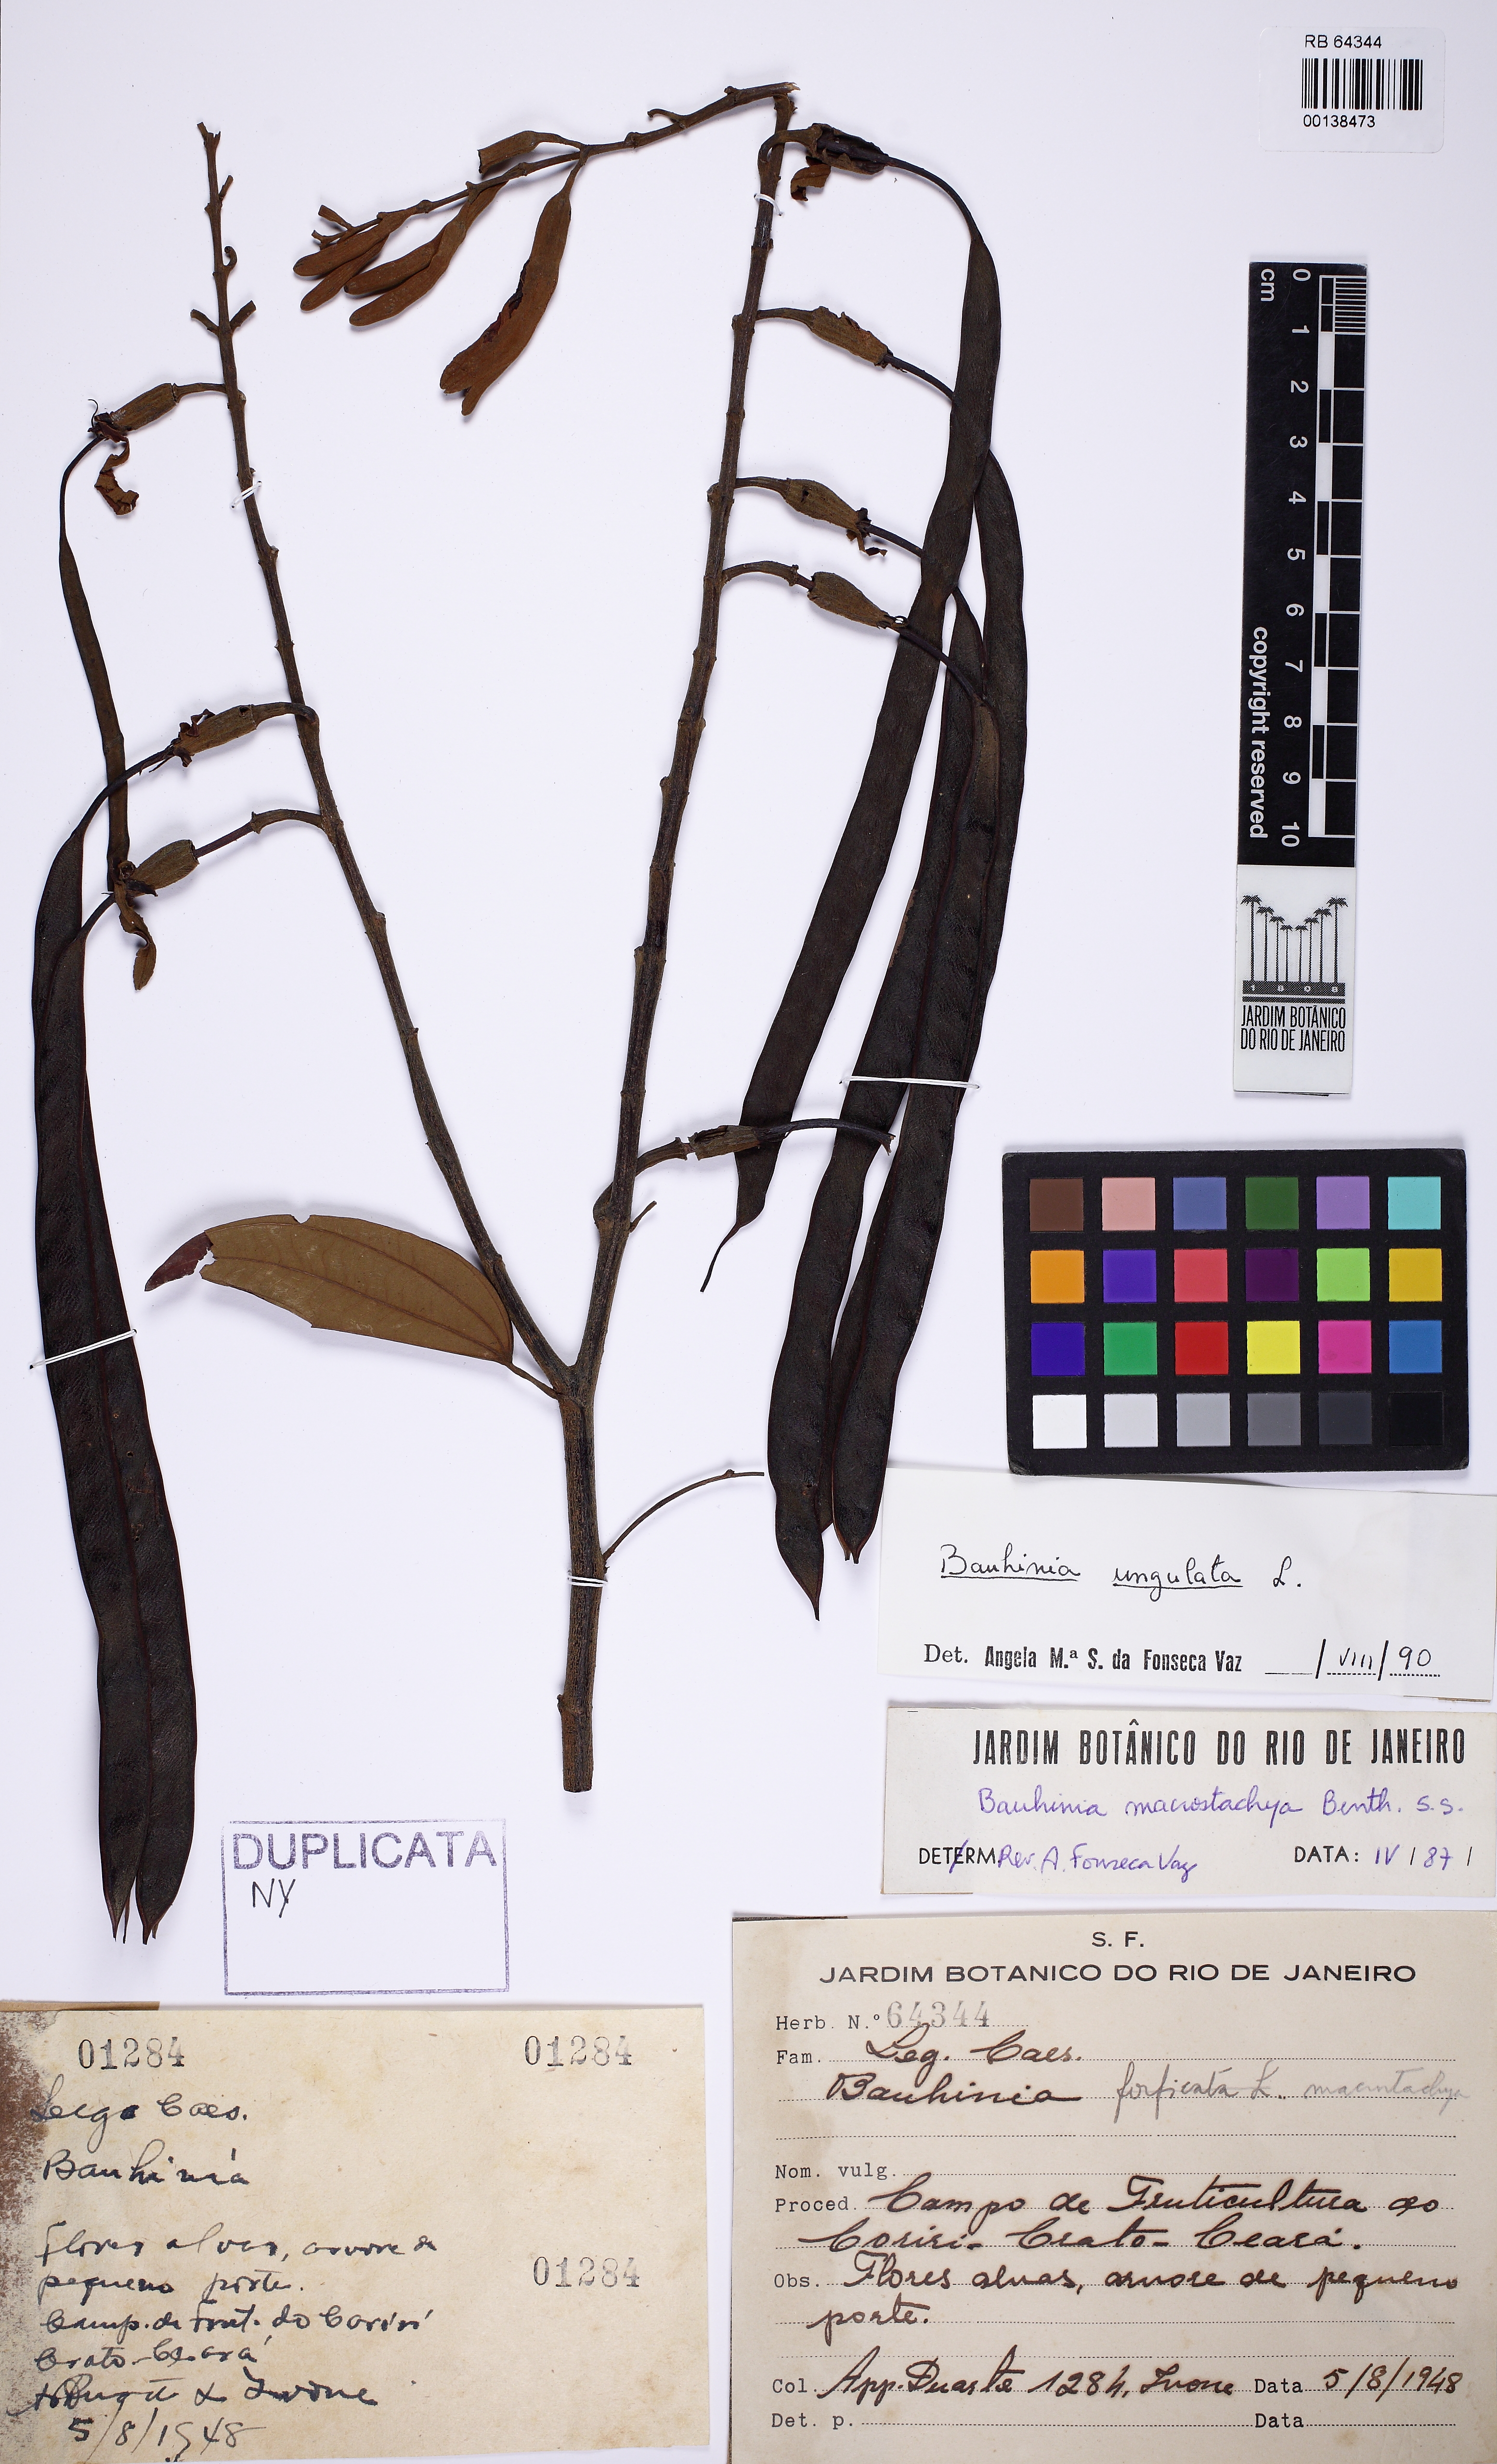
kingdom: Plantae
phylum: Tracheophyta
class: Magnoliopsida
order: Fabales
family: Fabaceae
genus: Bauhinia
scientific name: Bauhinia ungulata
